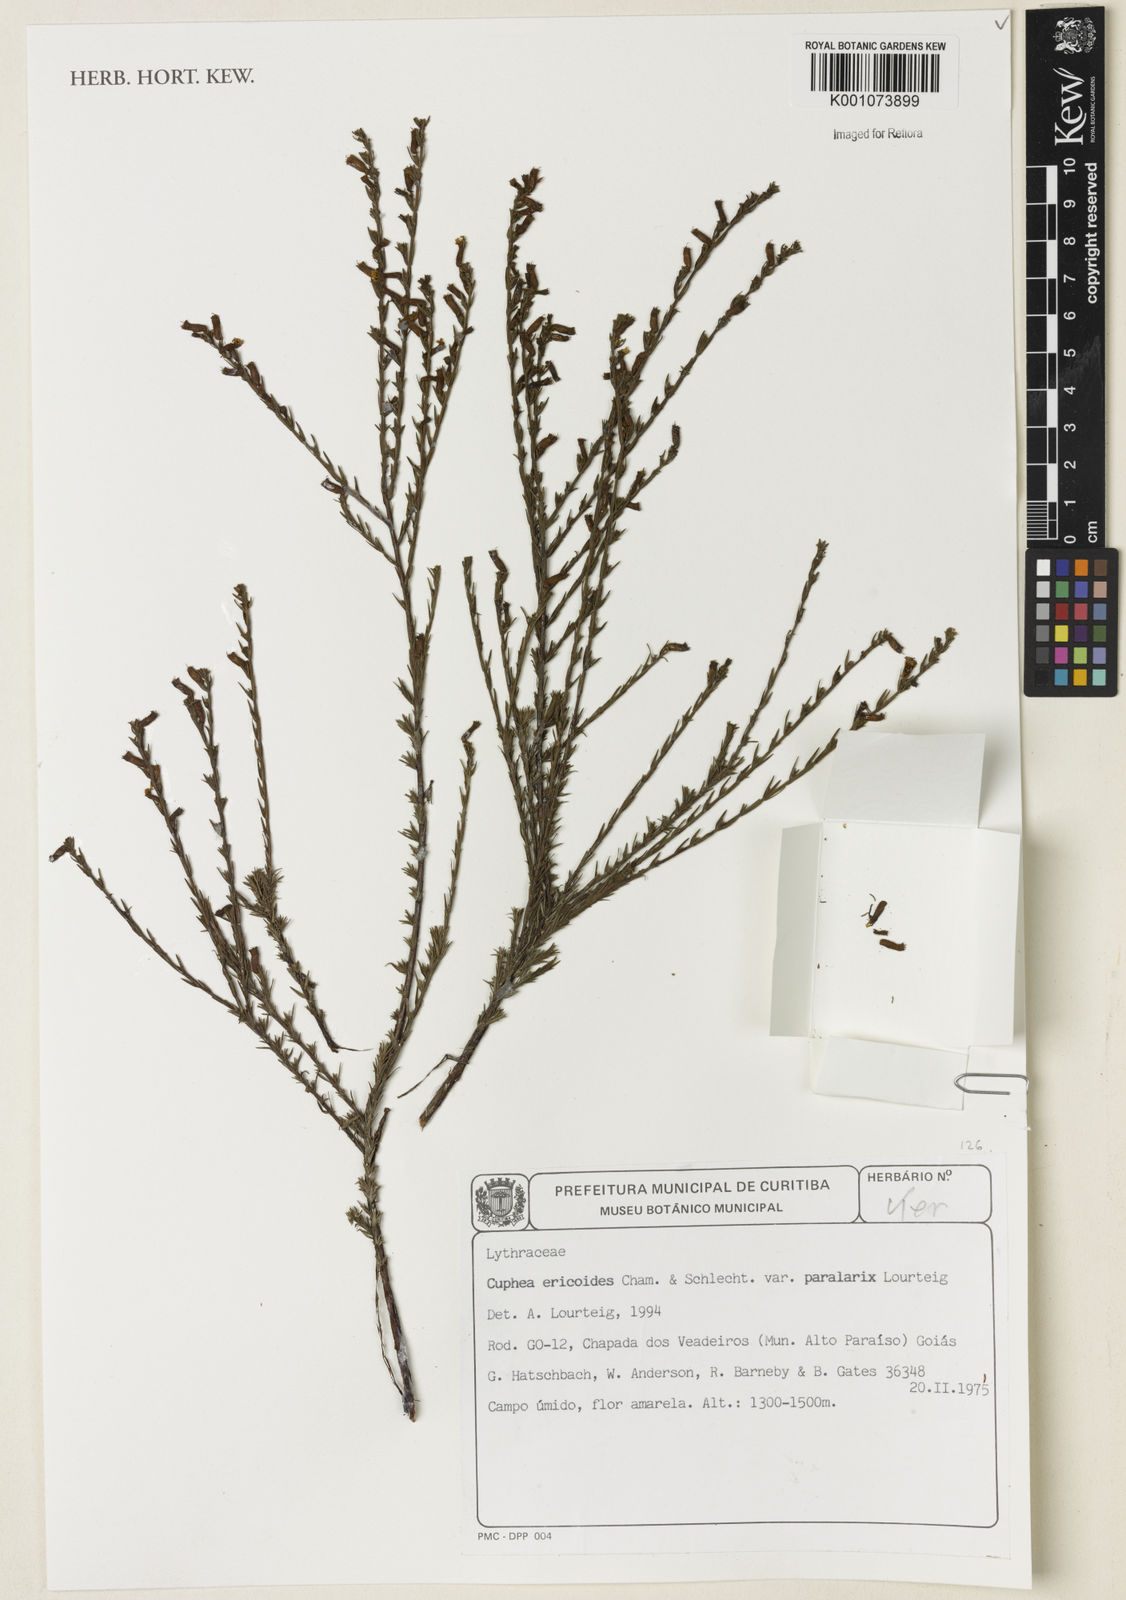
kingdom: Plantae
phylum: Tracheophyta
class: Magnoliopsida
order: Myrtales
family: Lythraceae
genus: Cuphea
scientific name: Cuphea paralarix
